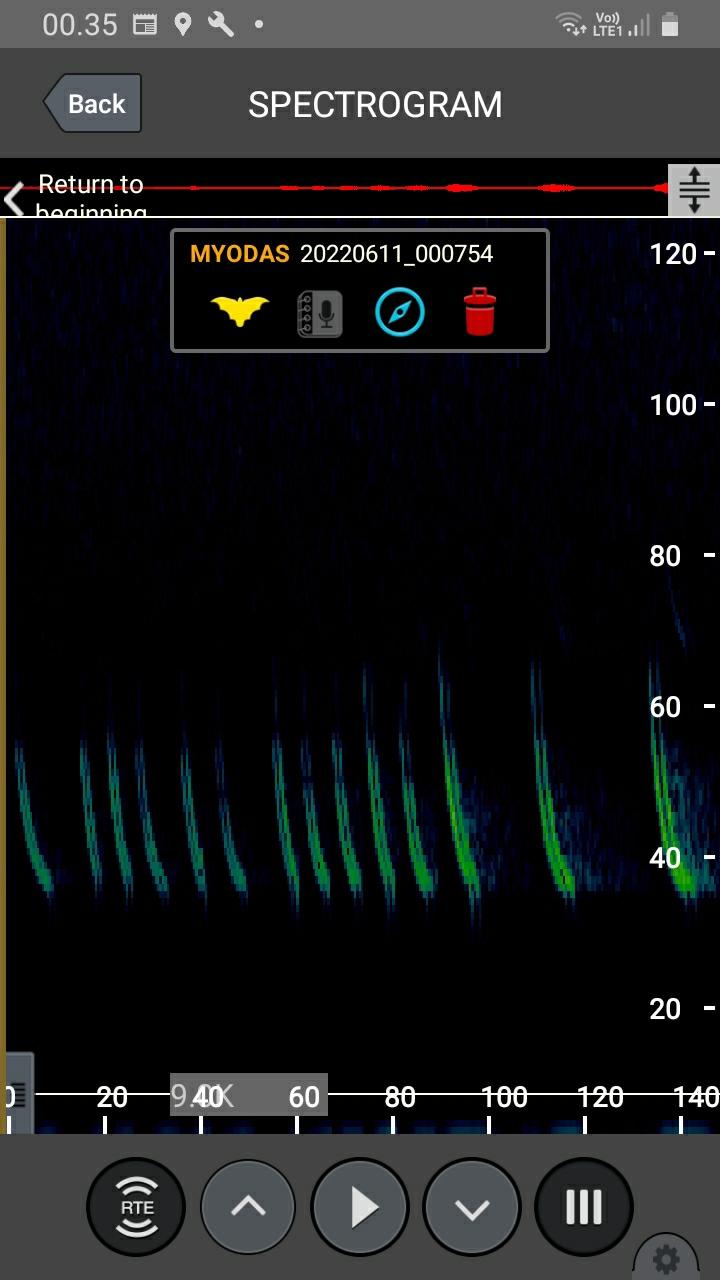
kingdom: Animalia
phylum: Chordata
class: Mammalia
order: Chiroptera
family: Vespertilionidae
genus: Myotis
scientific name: Myotis dasycneme
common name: Damflagermus
